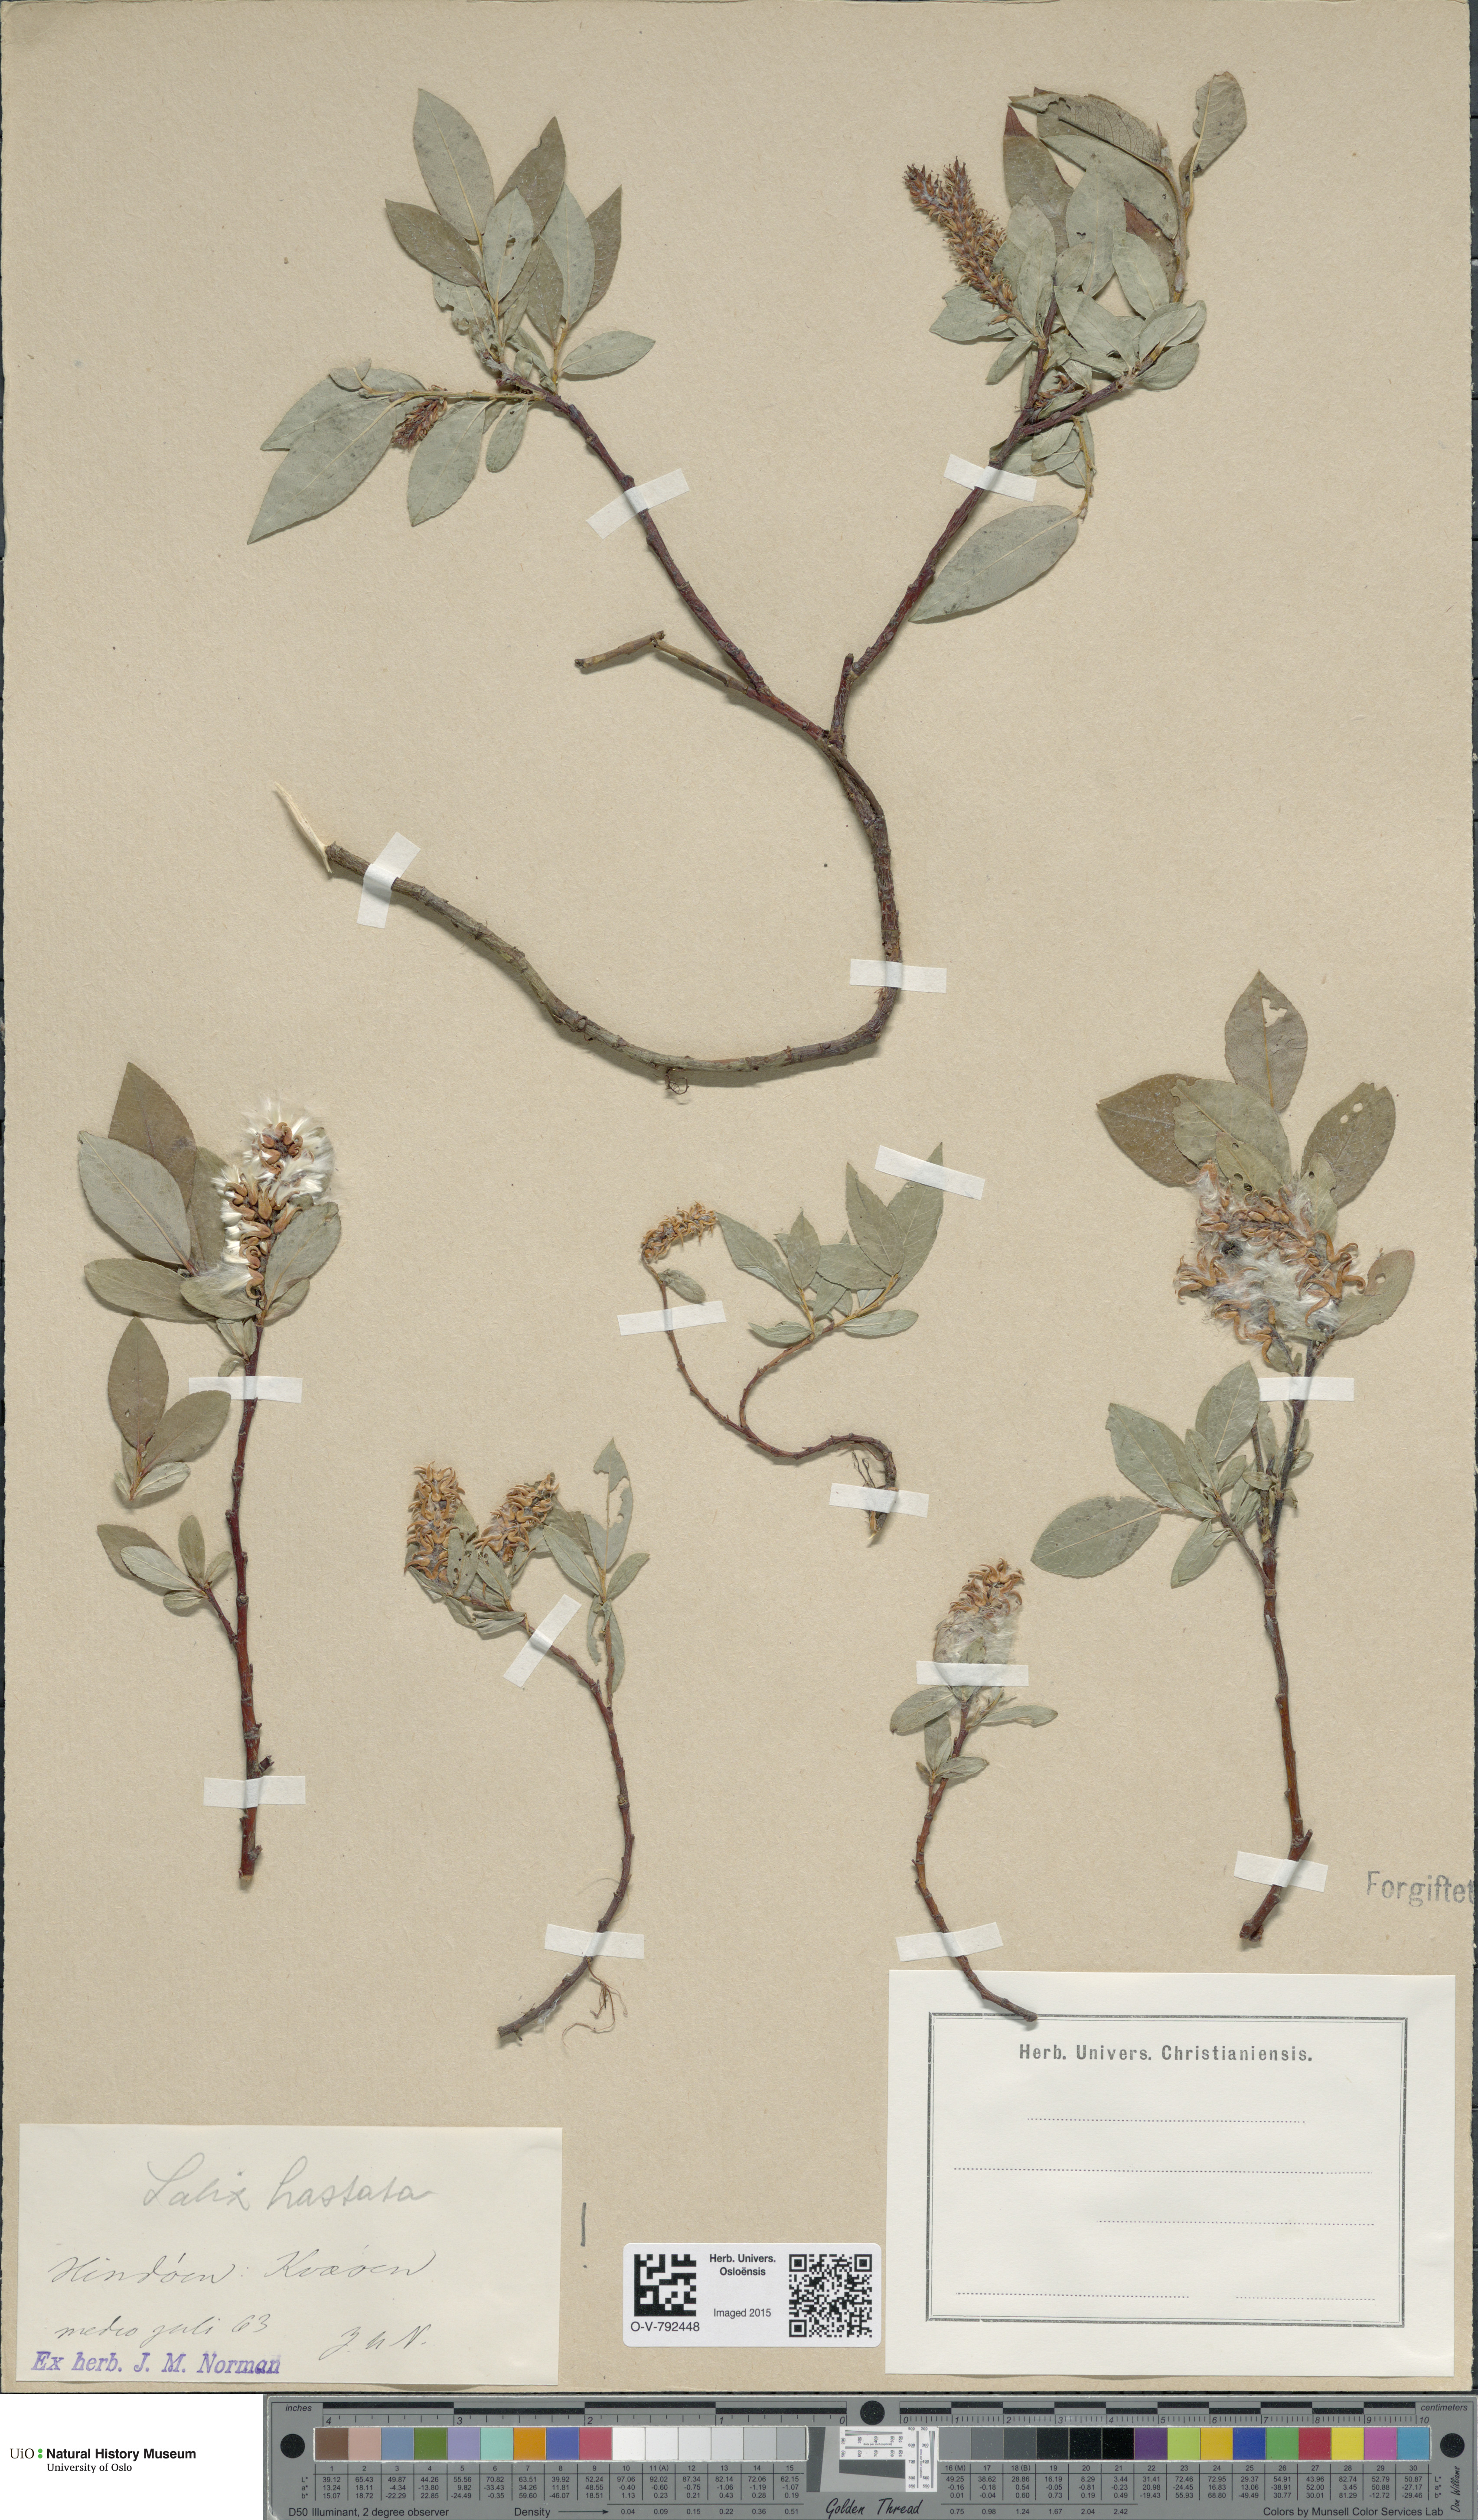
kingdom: Plantae
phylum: Tracheophyta
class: Magnoliopsida
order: Malpighiales
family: Salicaceae
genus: Salix
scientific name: Salix hastata
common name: Halberd willow
